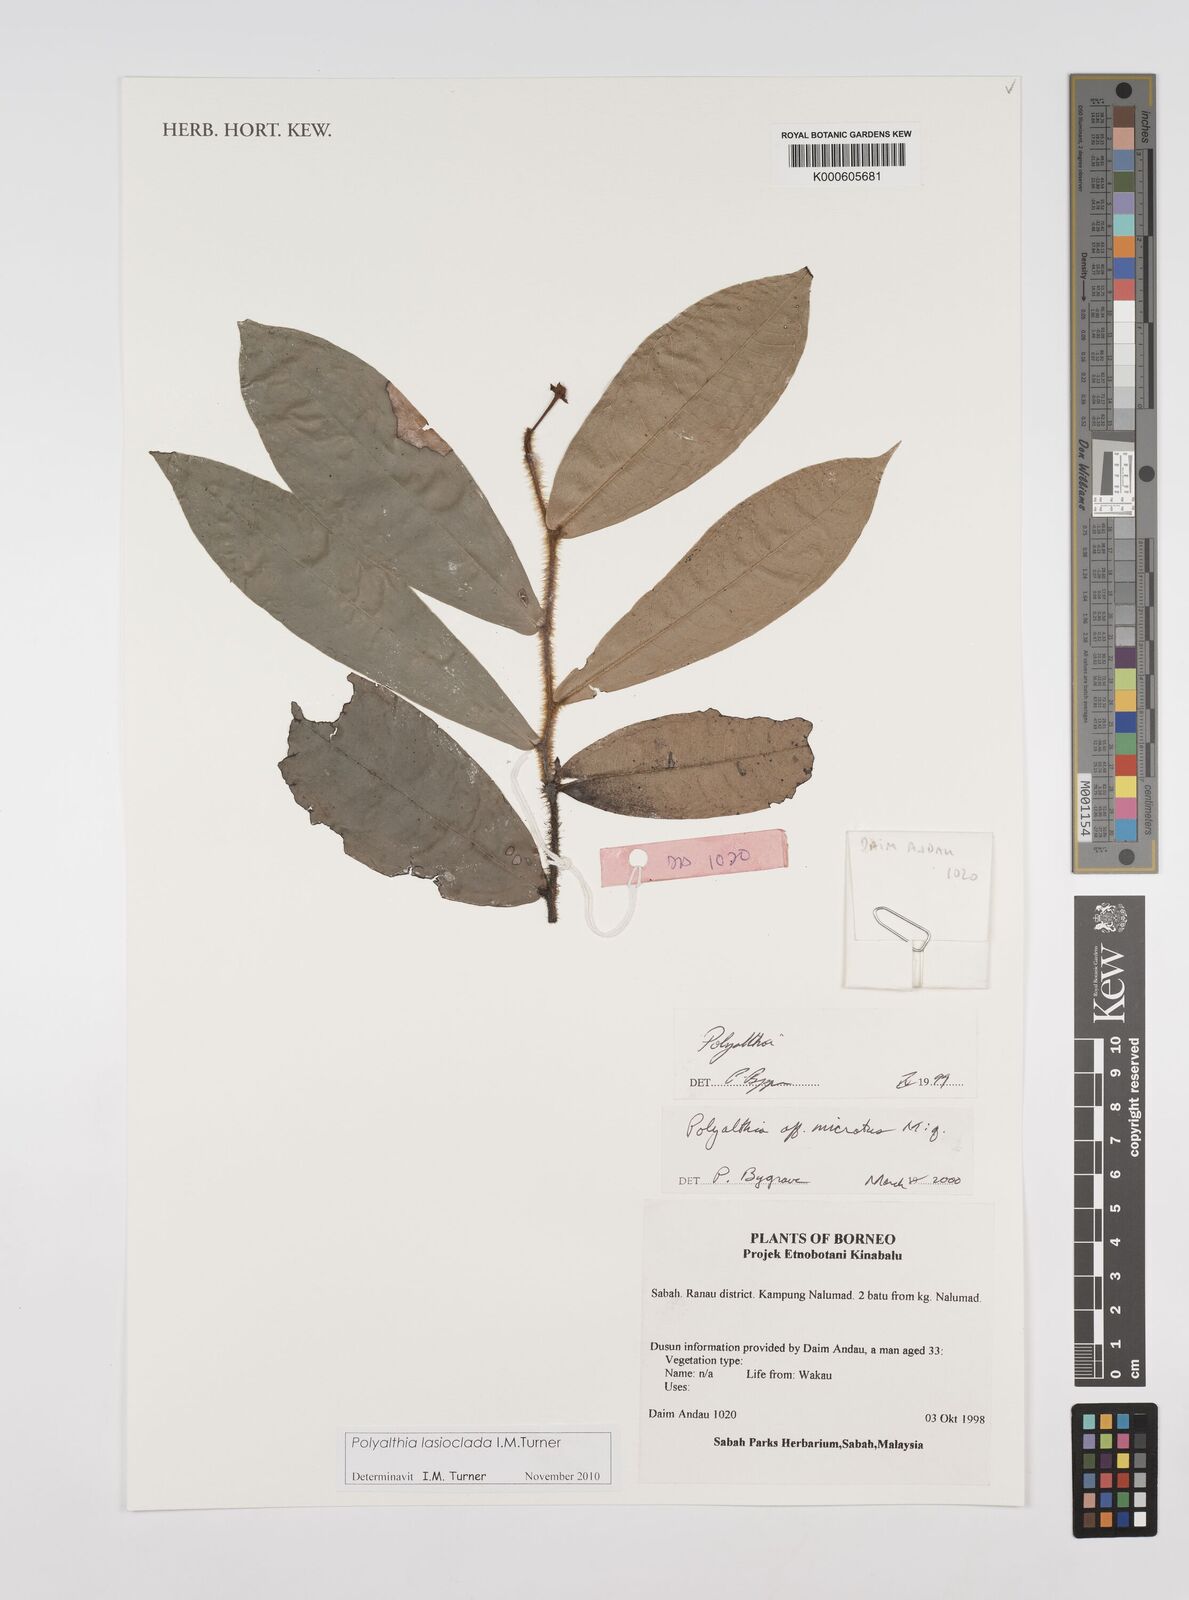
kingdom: Plantae
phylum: Tracheophyta
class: Magnoliopsida
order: Magnoliales
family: Annonaceae
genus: Polyalthia
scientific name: Polyalthia
